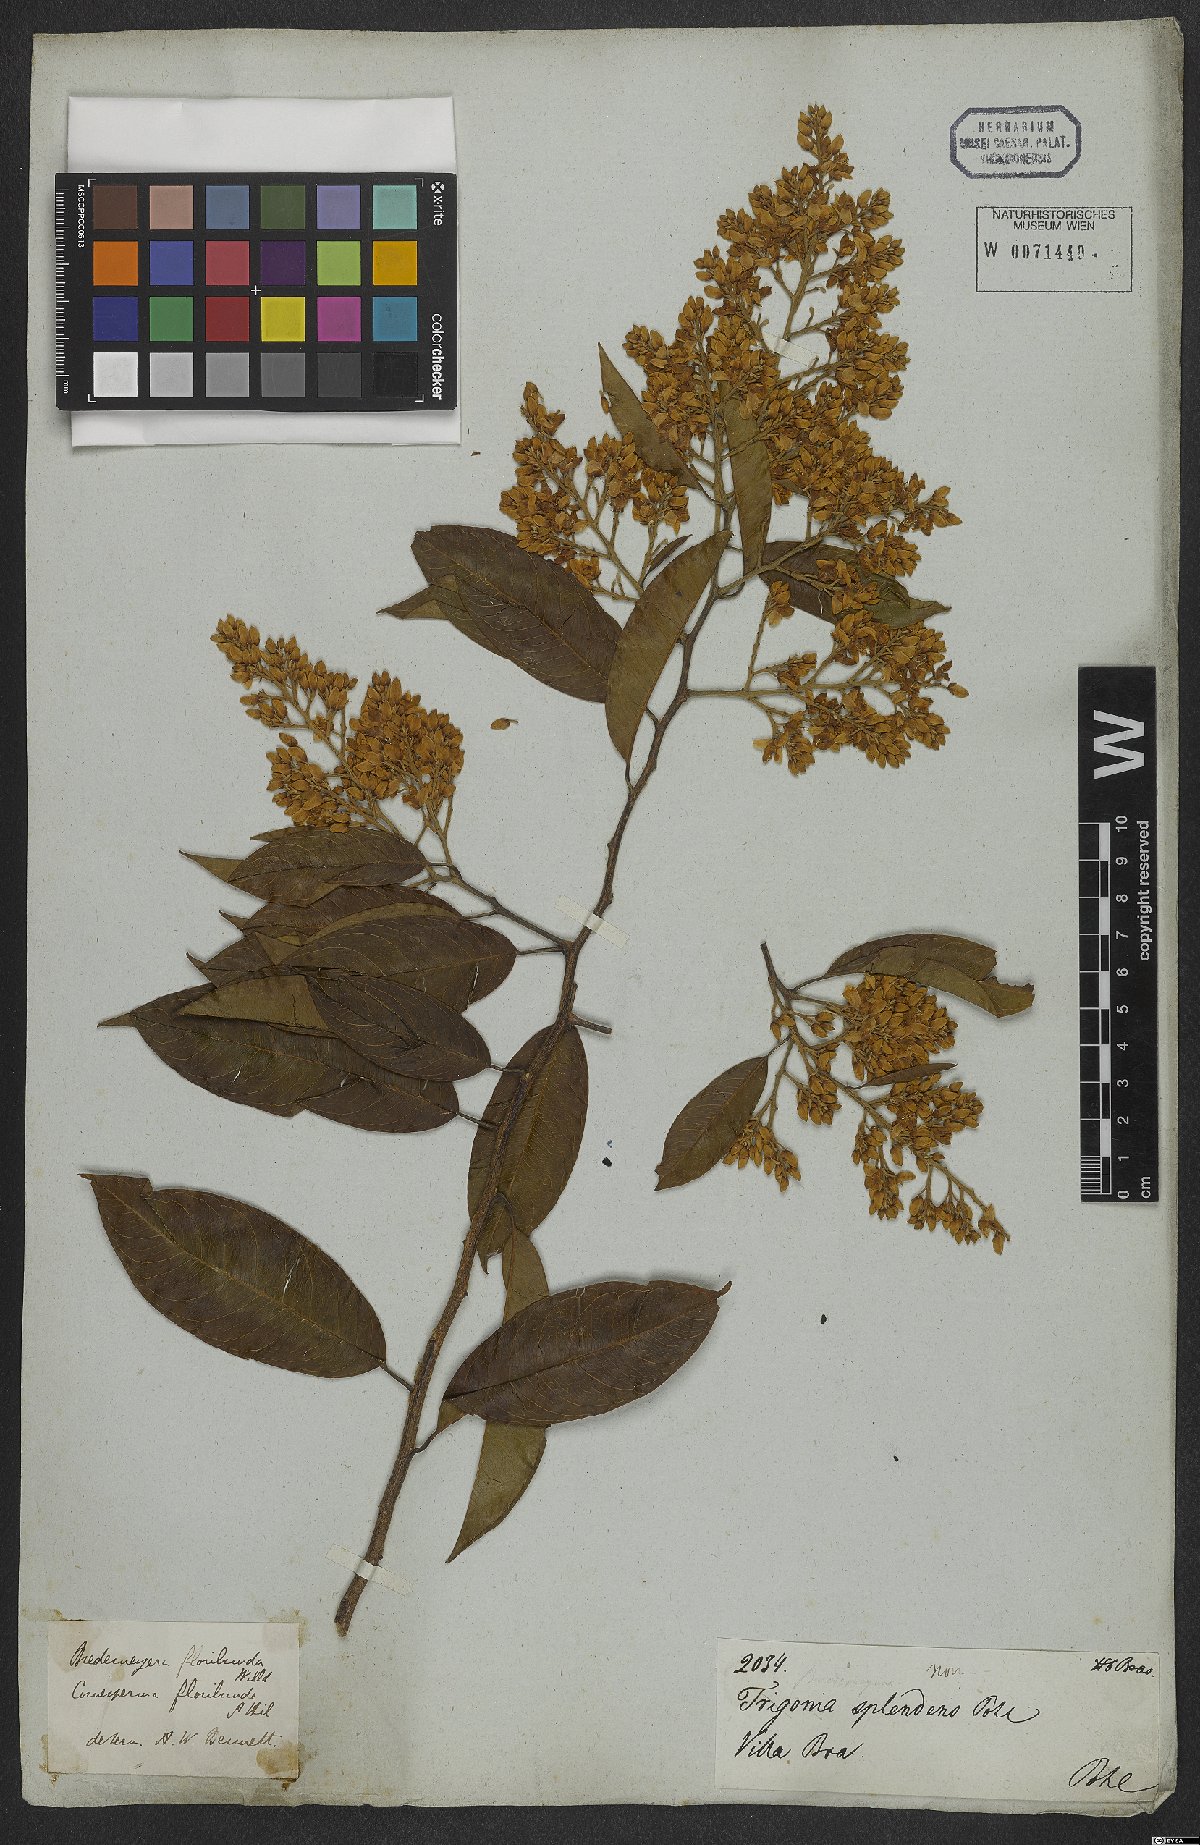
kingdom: Plantae
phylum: Tracheophyta
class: Magnoliopsida
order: Fabales
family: Polygalaceae
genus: Bredemeyera
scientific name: Bredemeyera floribunda
